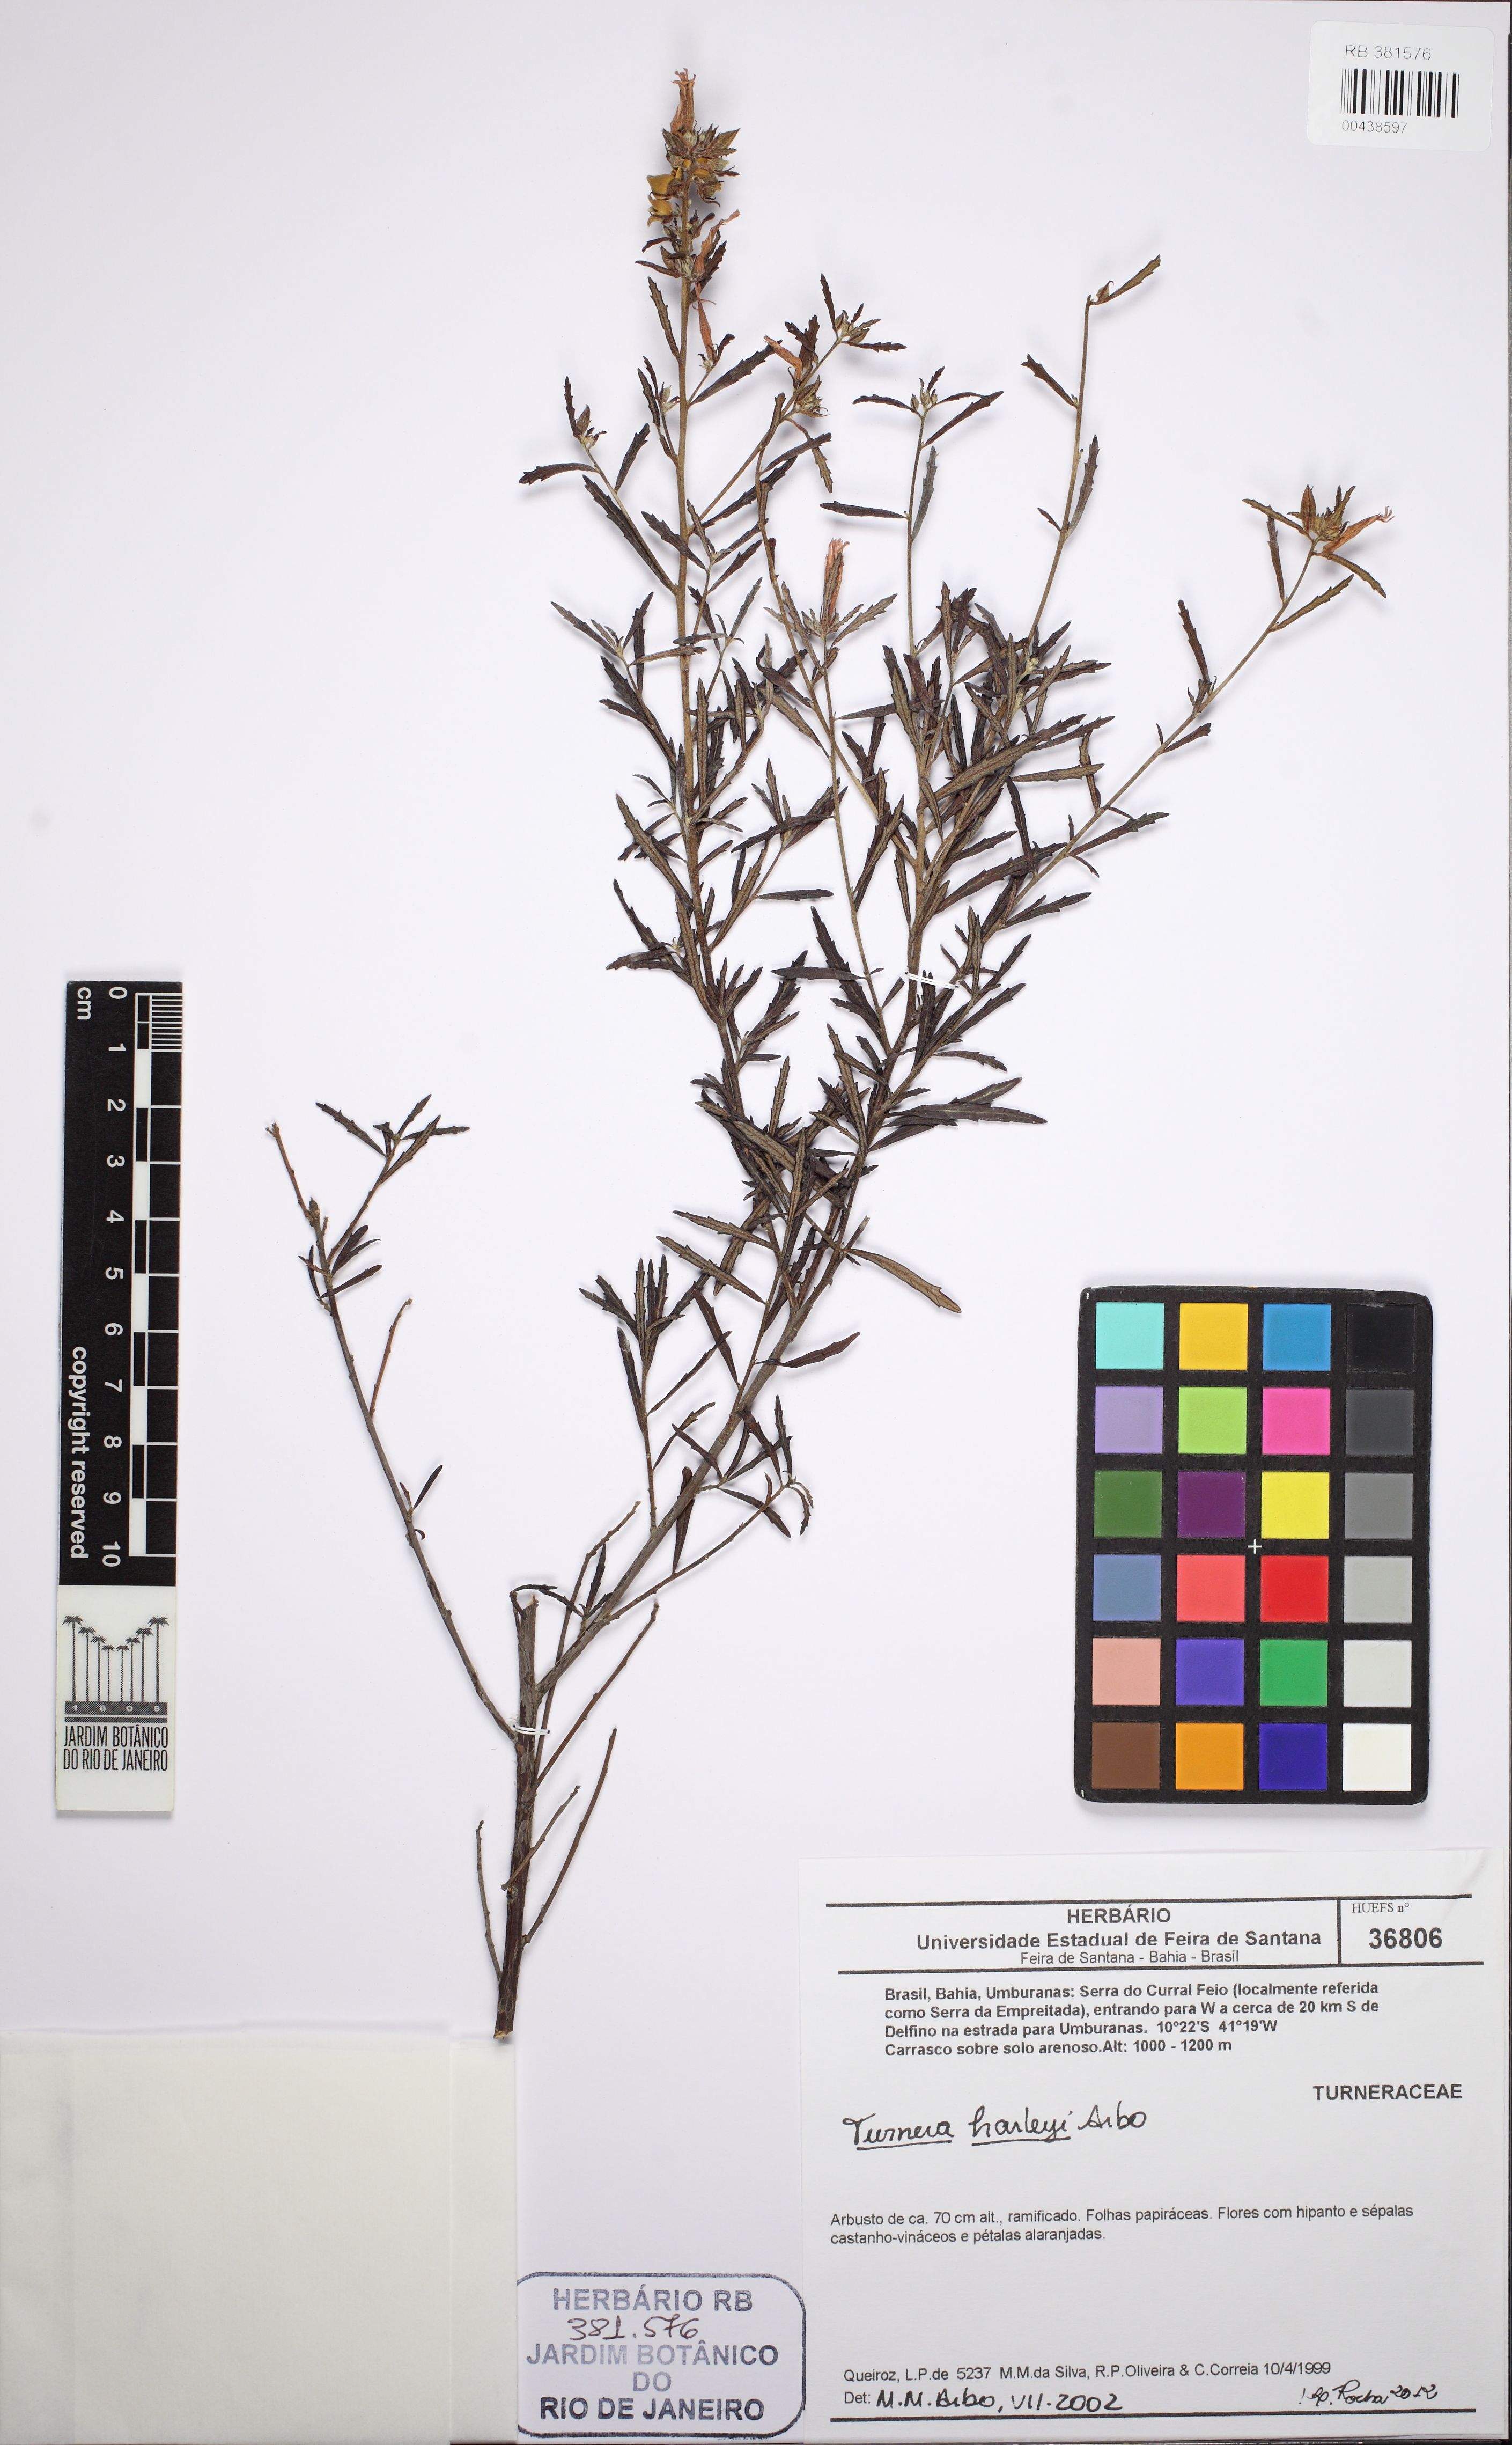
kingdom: Plantae
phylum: Tracheophyta
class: Magnoliopsida
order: Malpighiales
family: Turneraceae
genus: Turnera
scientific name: Turnera harleyi
